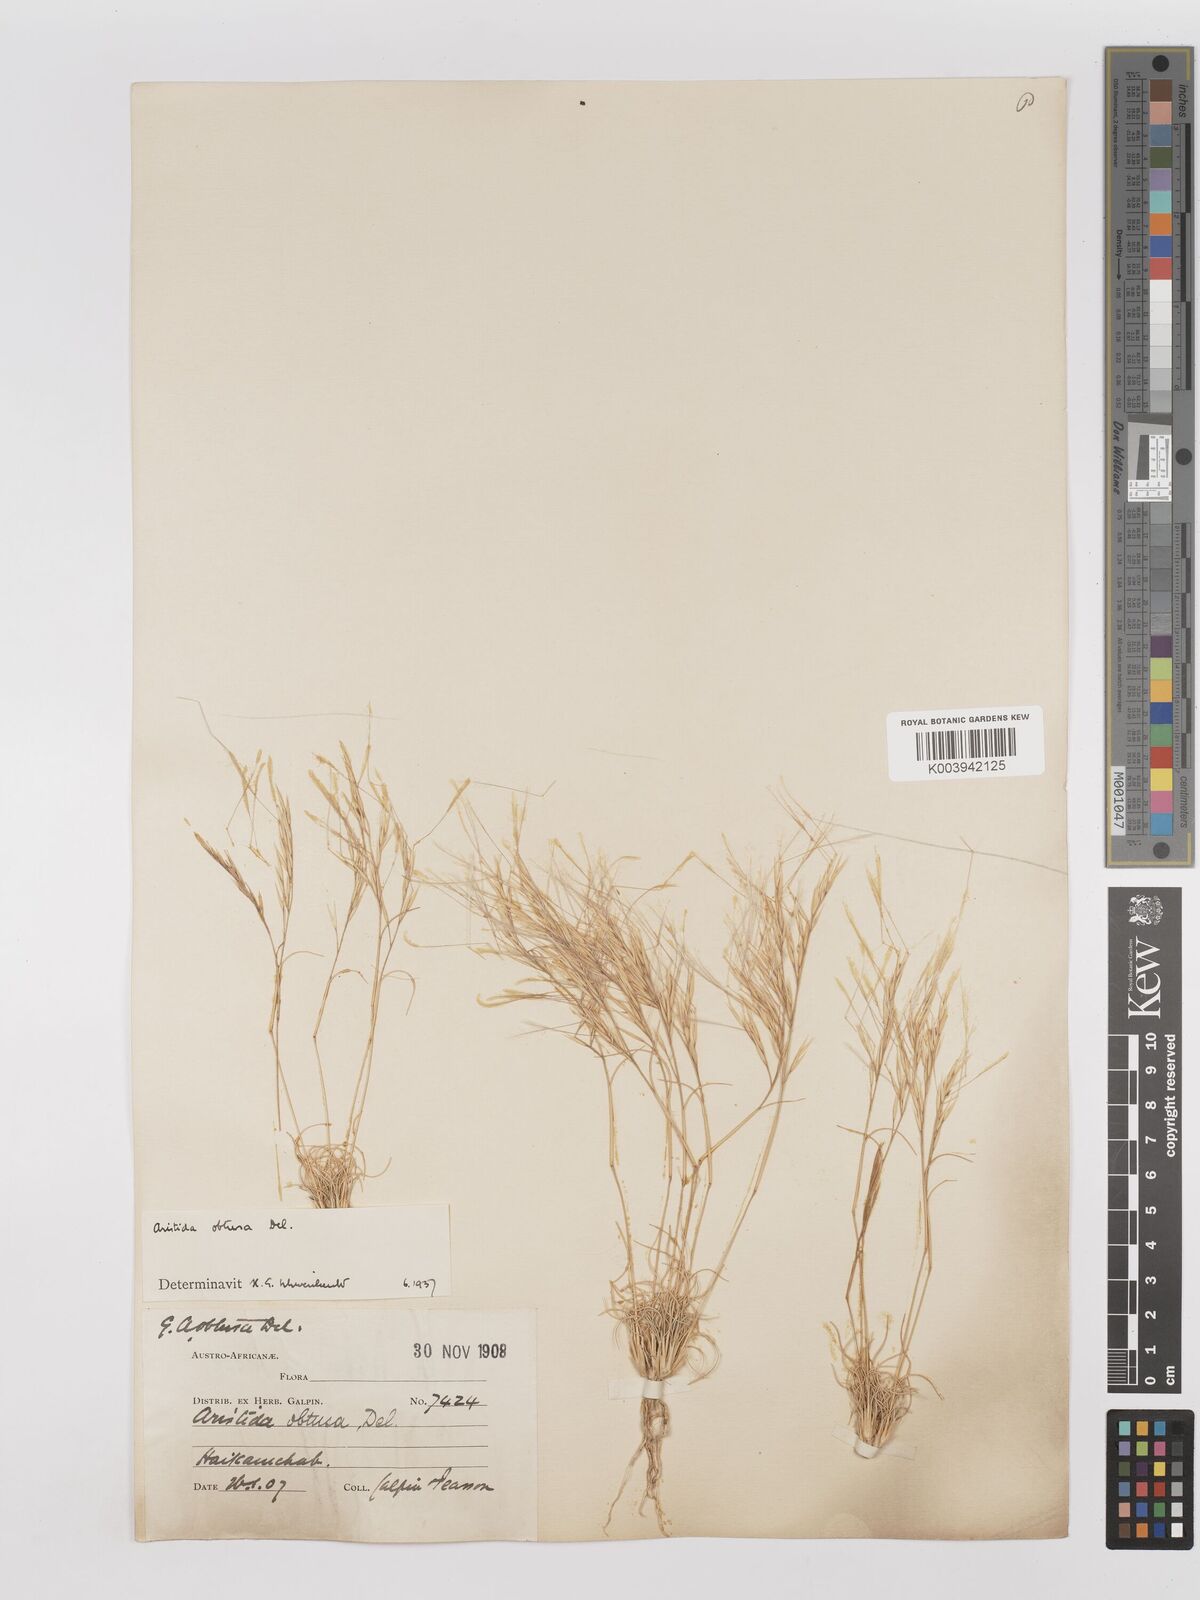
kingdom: Plantae
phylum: Tracheophyta
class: Liliopsida
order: Poales
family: Poaceae
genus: Stipagrostis
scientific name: Stipagrostis obtusa
